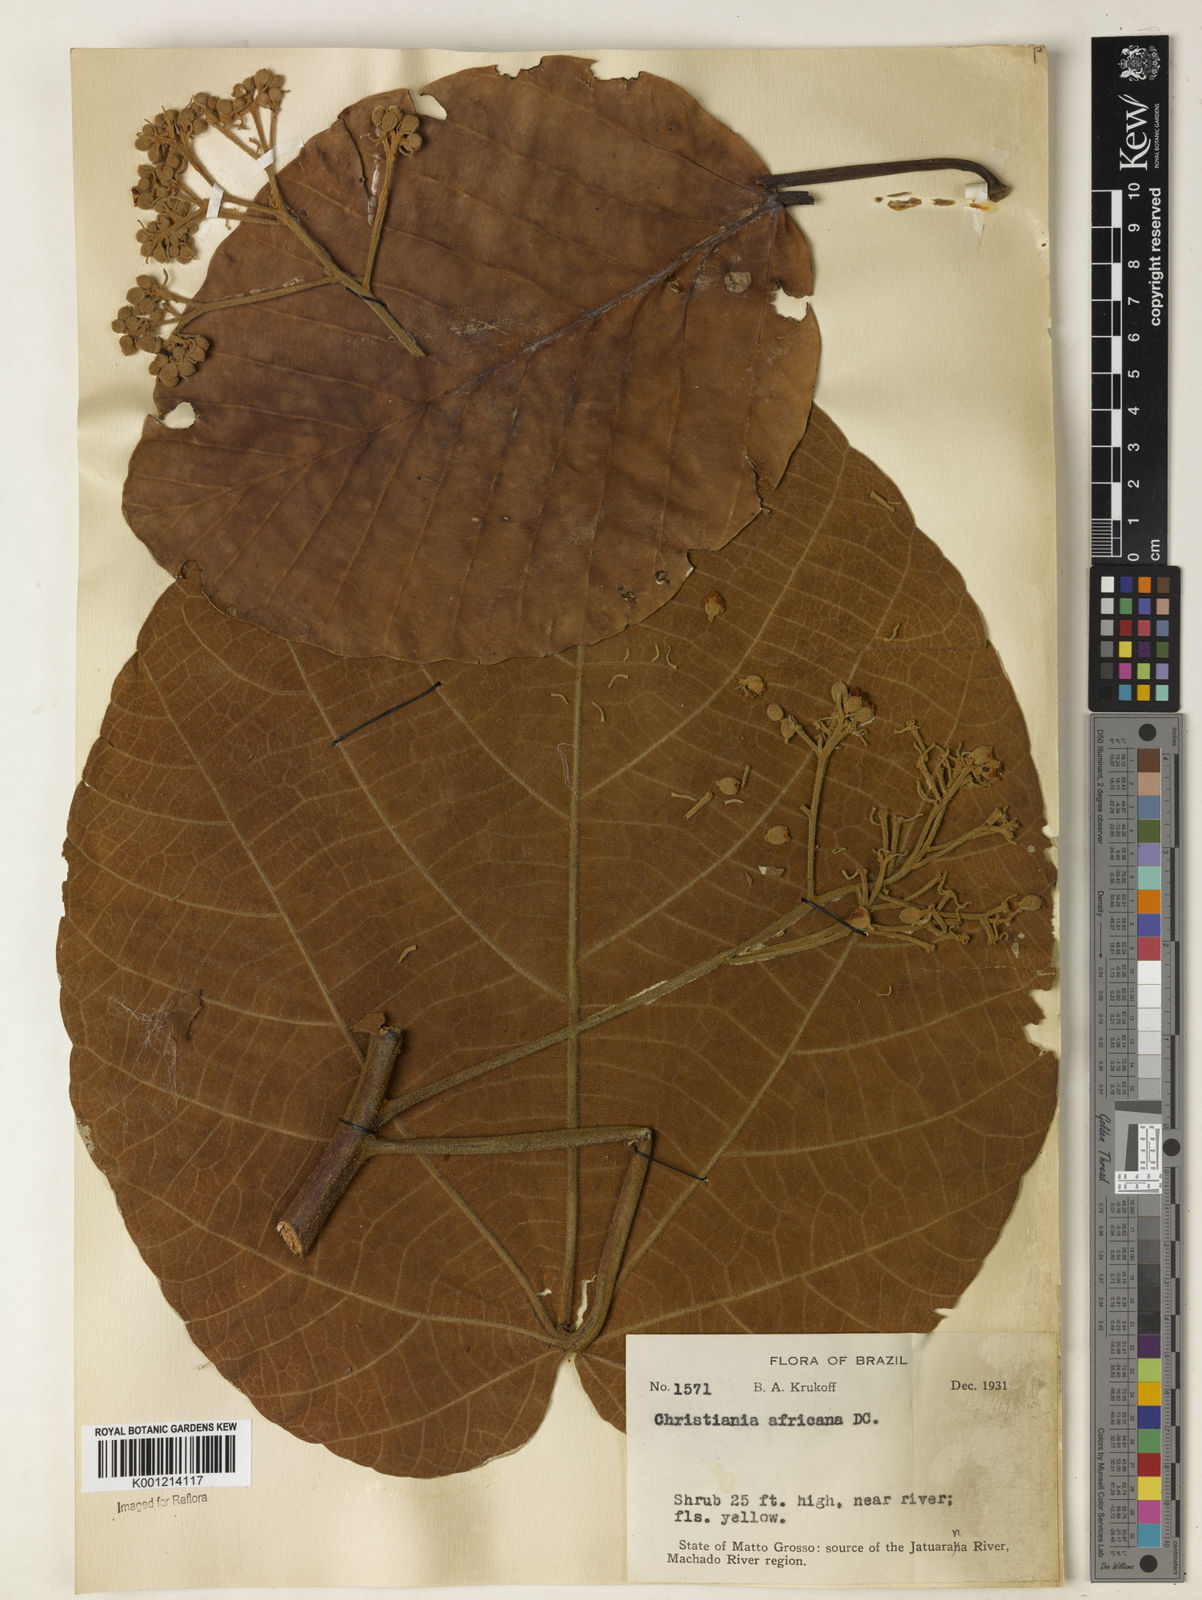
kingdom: Plantae
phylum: Tracheophyta
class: Magnoliopsida
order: Malvales
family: Malvaceae
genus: Christiana
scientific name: Christiana africana
